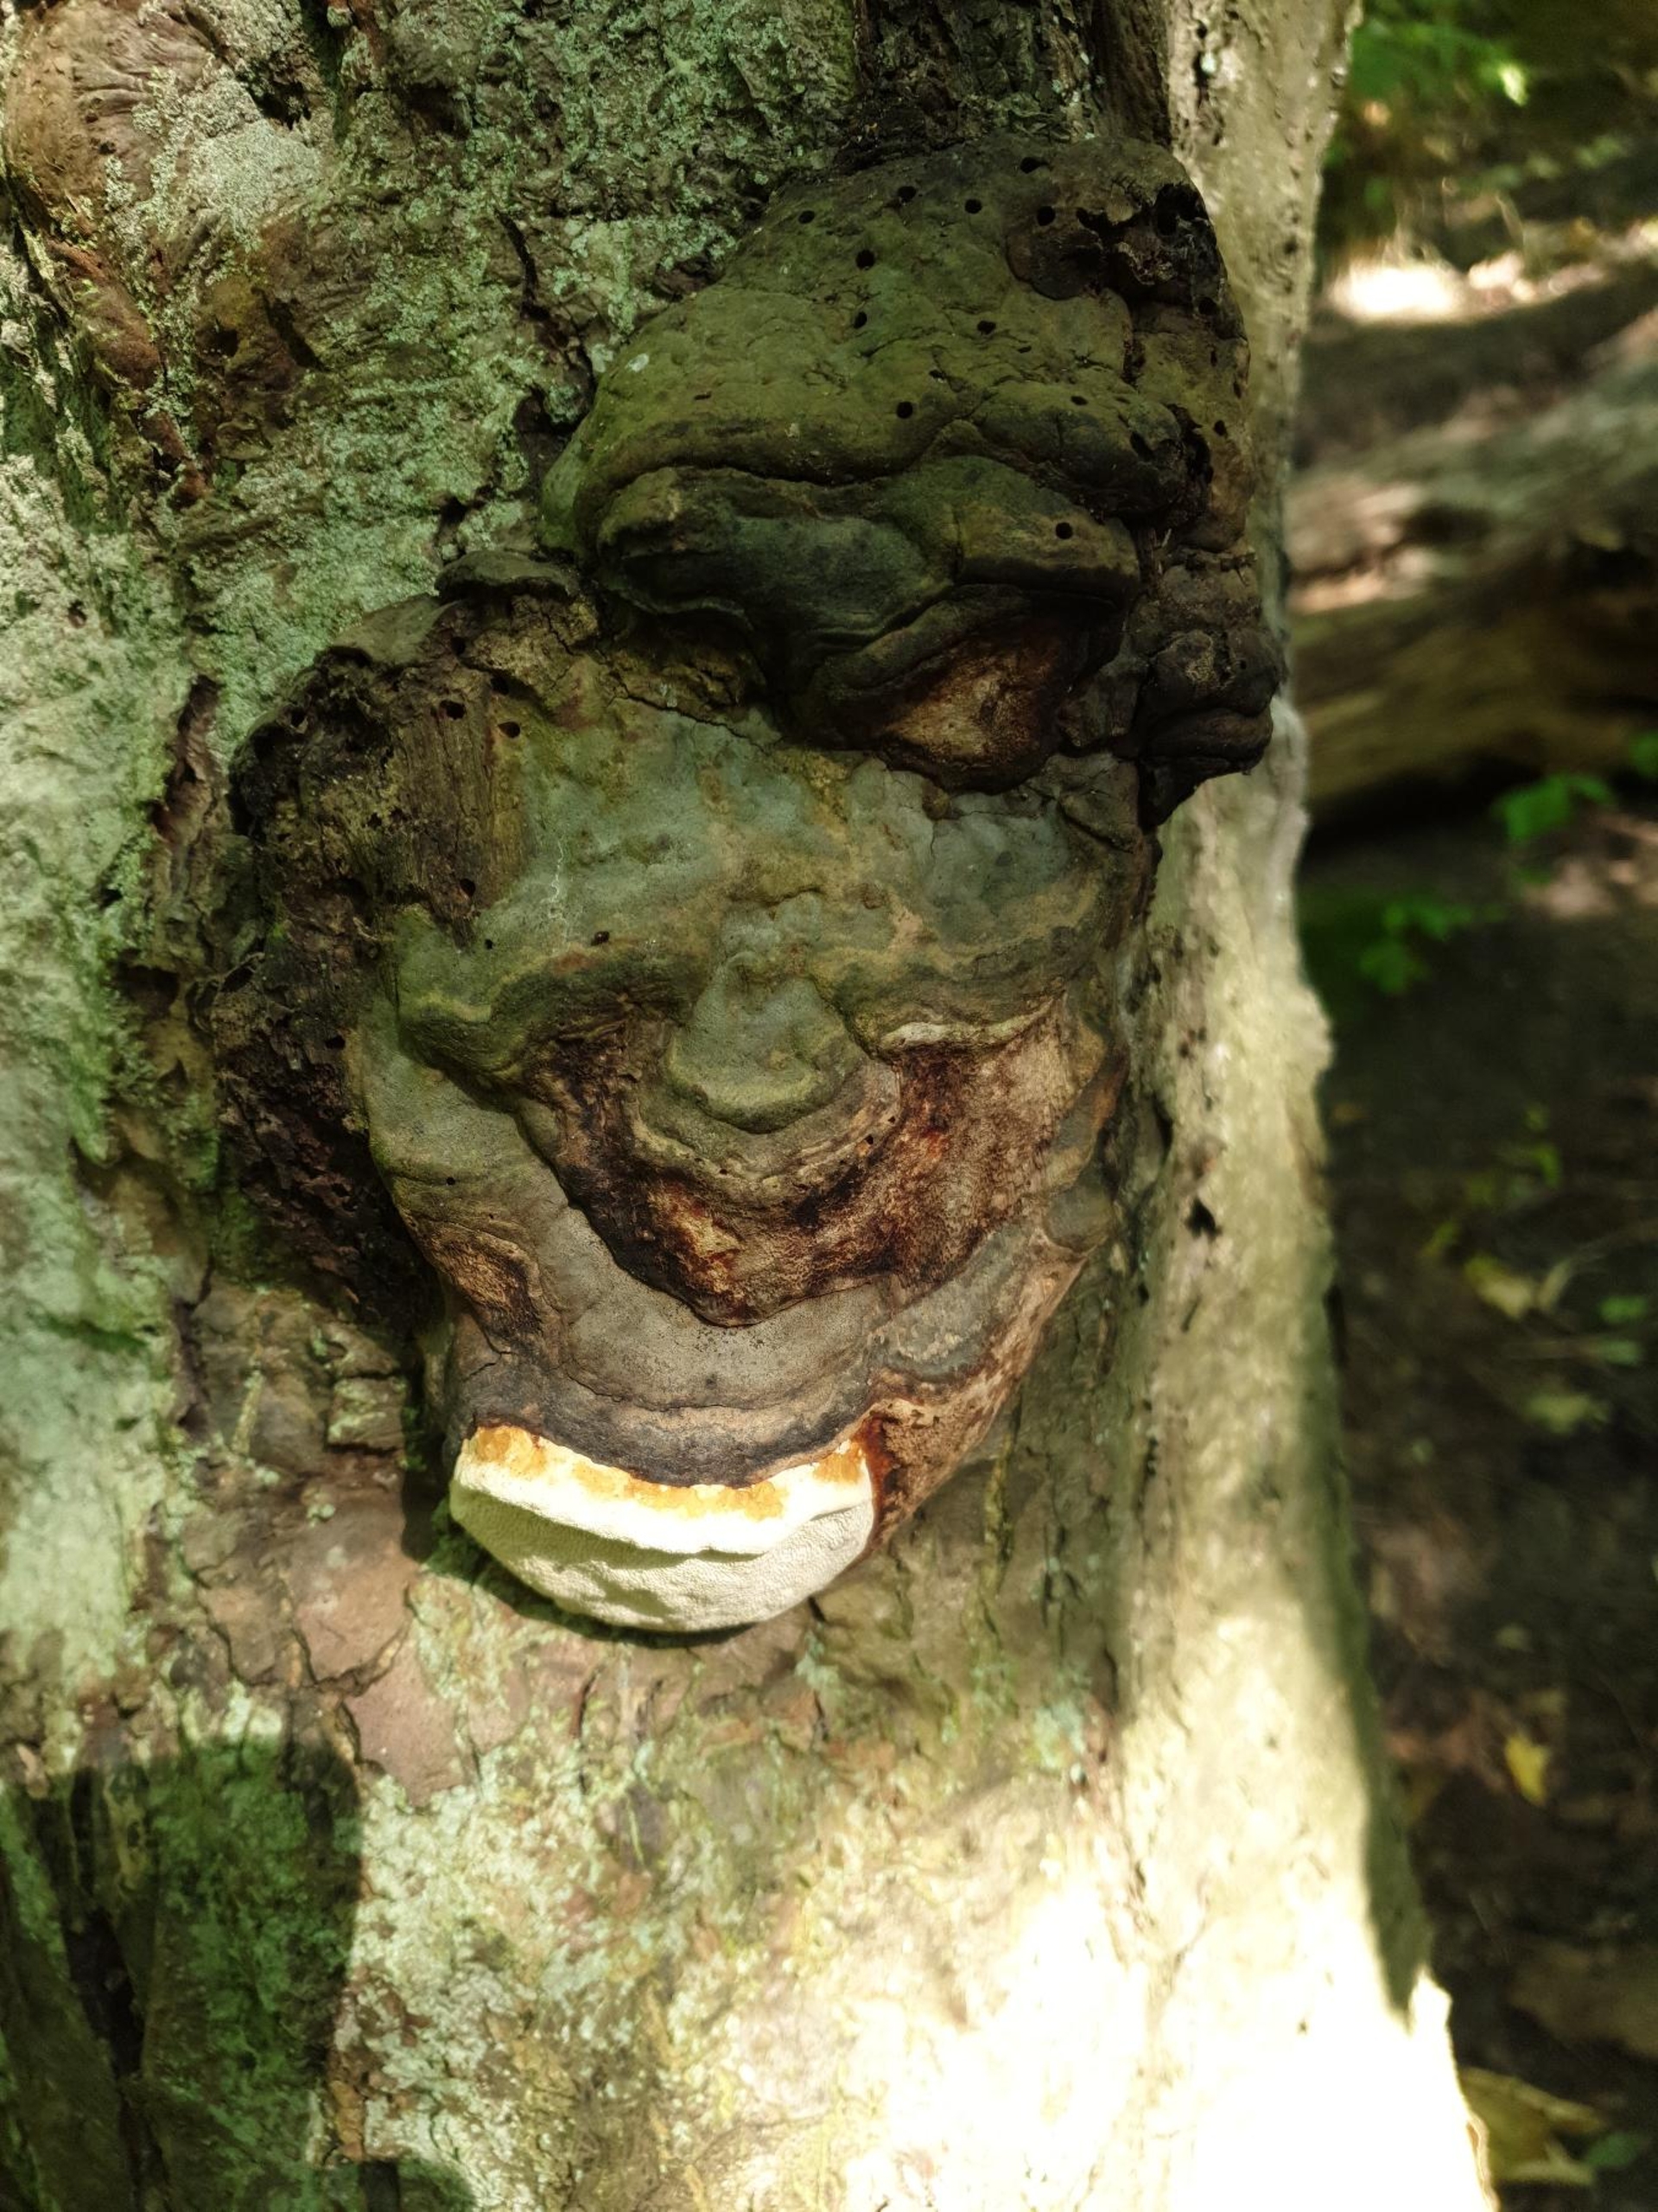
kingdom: Fungi
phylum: Basidiomycota
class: Agaricomycetes
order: Polyporales
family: Fomitopsidaceae
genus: Fomitopsis
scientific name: Fomitopsis pinicola
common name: Randbæltet hovporesvamp
